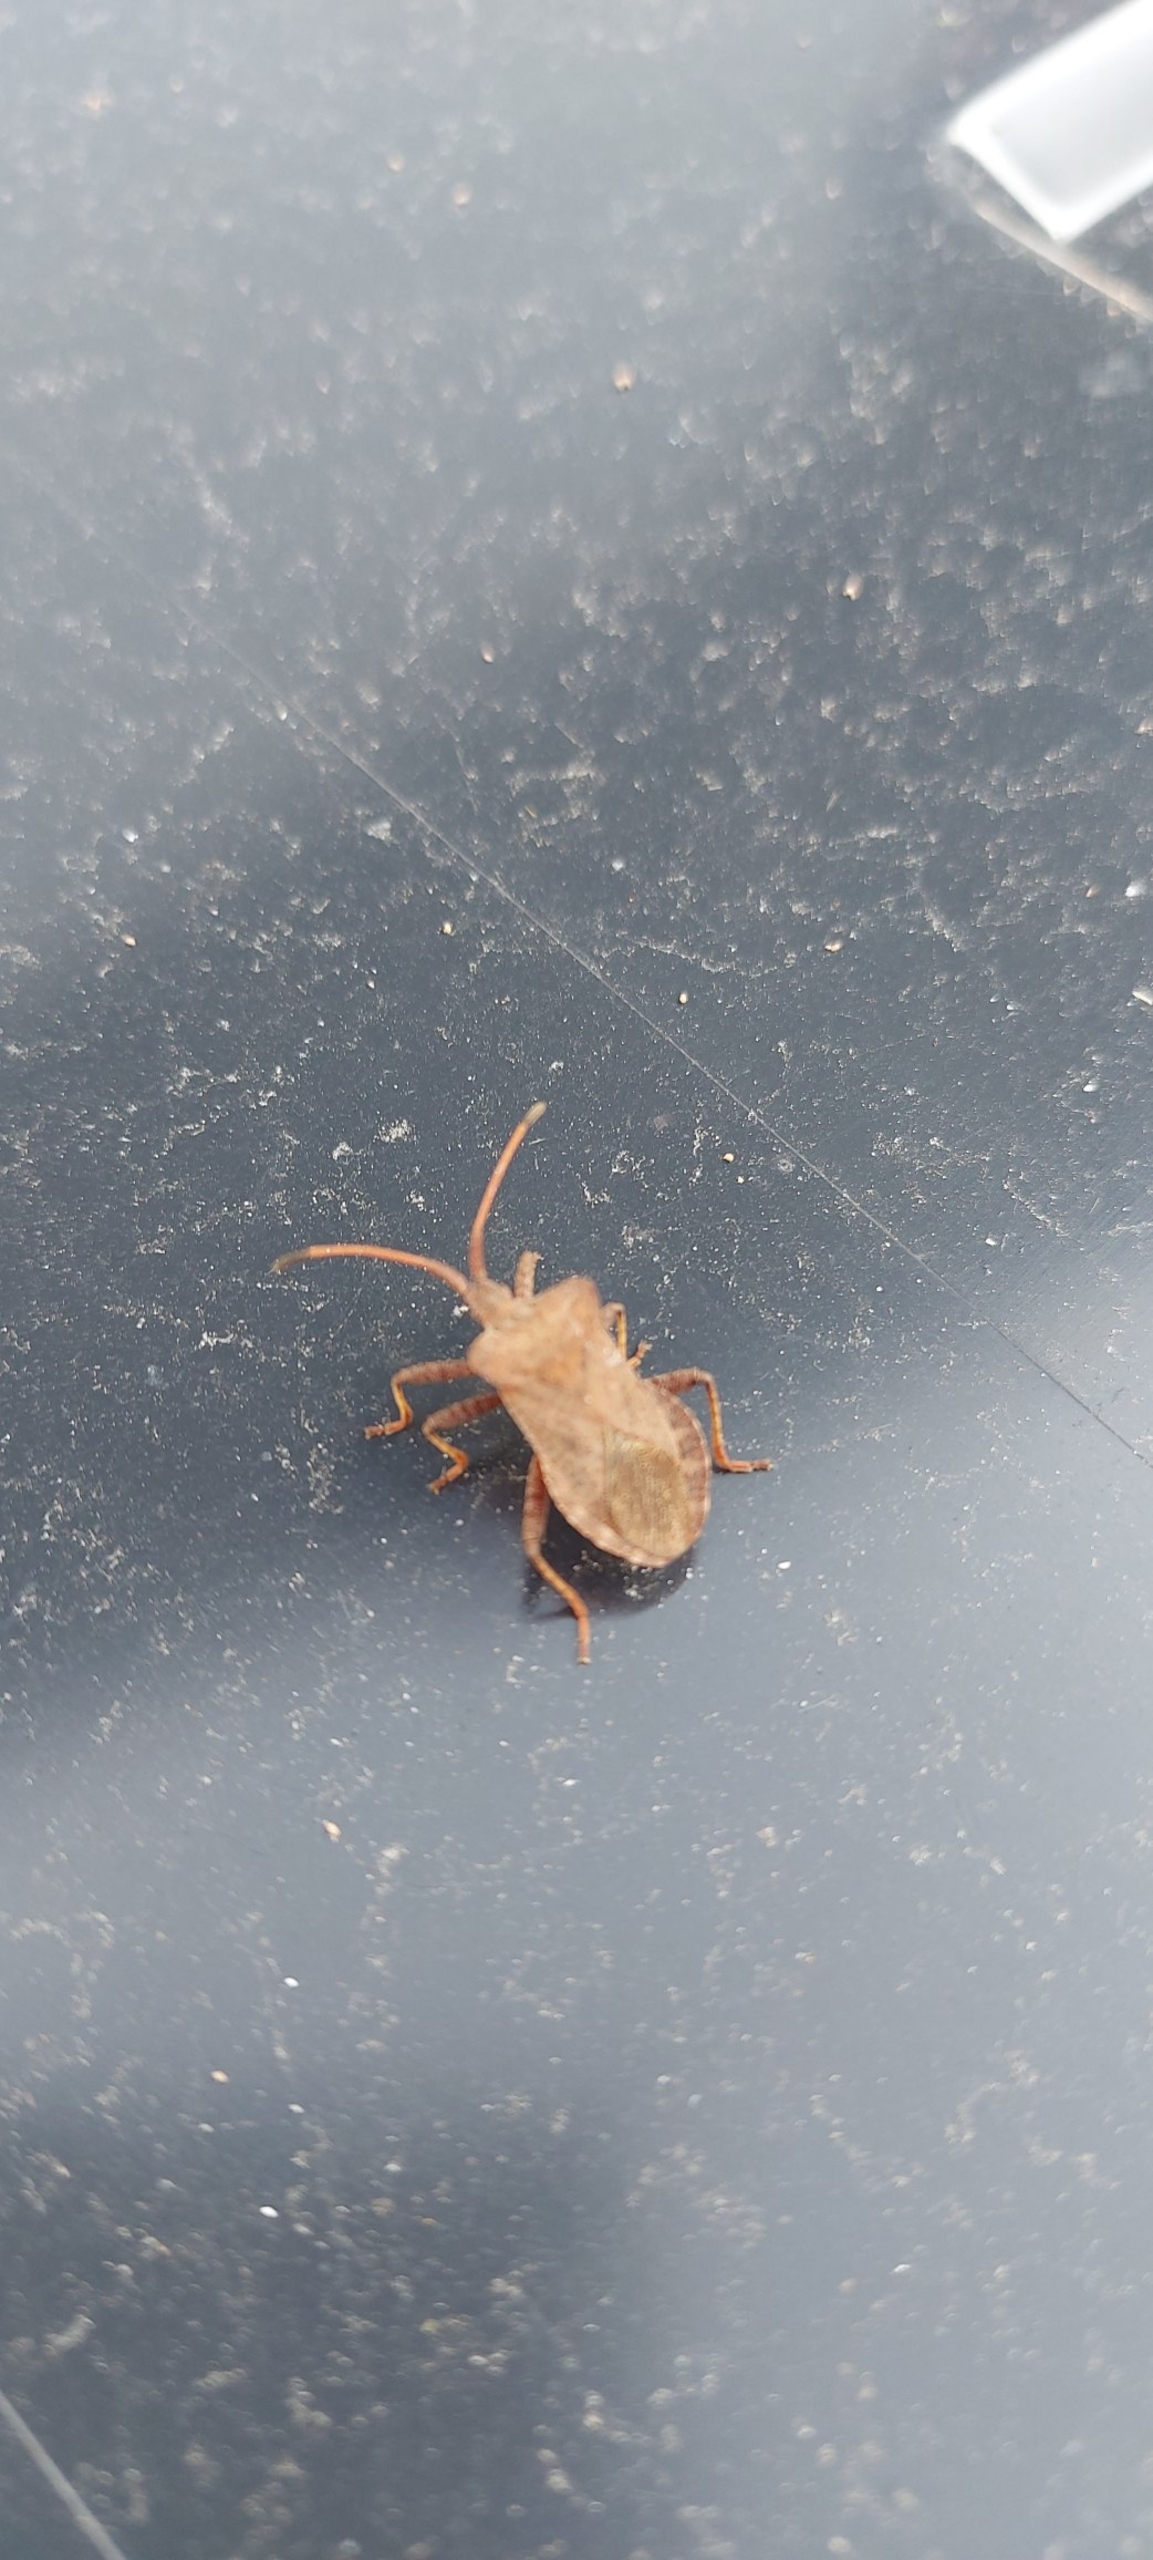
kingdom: Animalia
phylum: Arthropoda
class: Insecta
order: Hemiptera
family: Coreidae
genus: Coreus
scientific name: Coreus marginatus
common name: Skræppetæge
